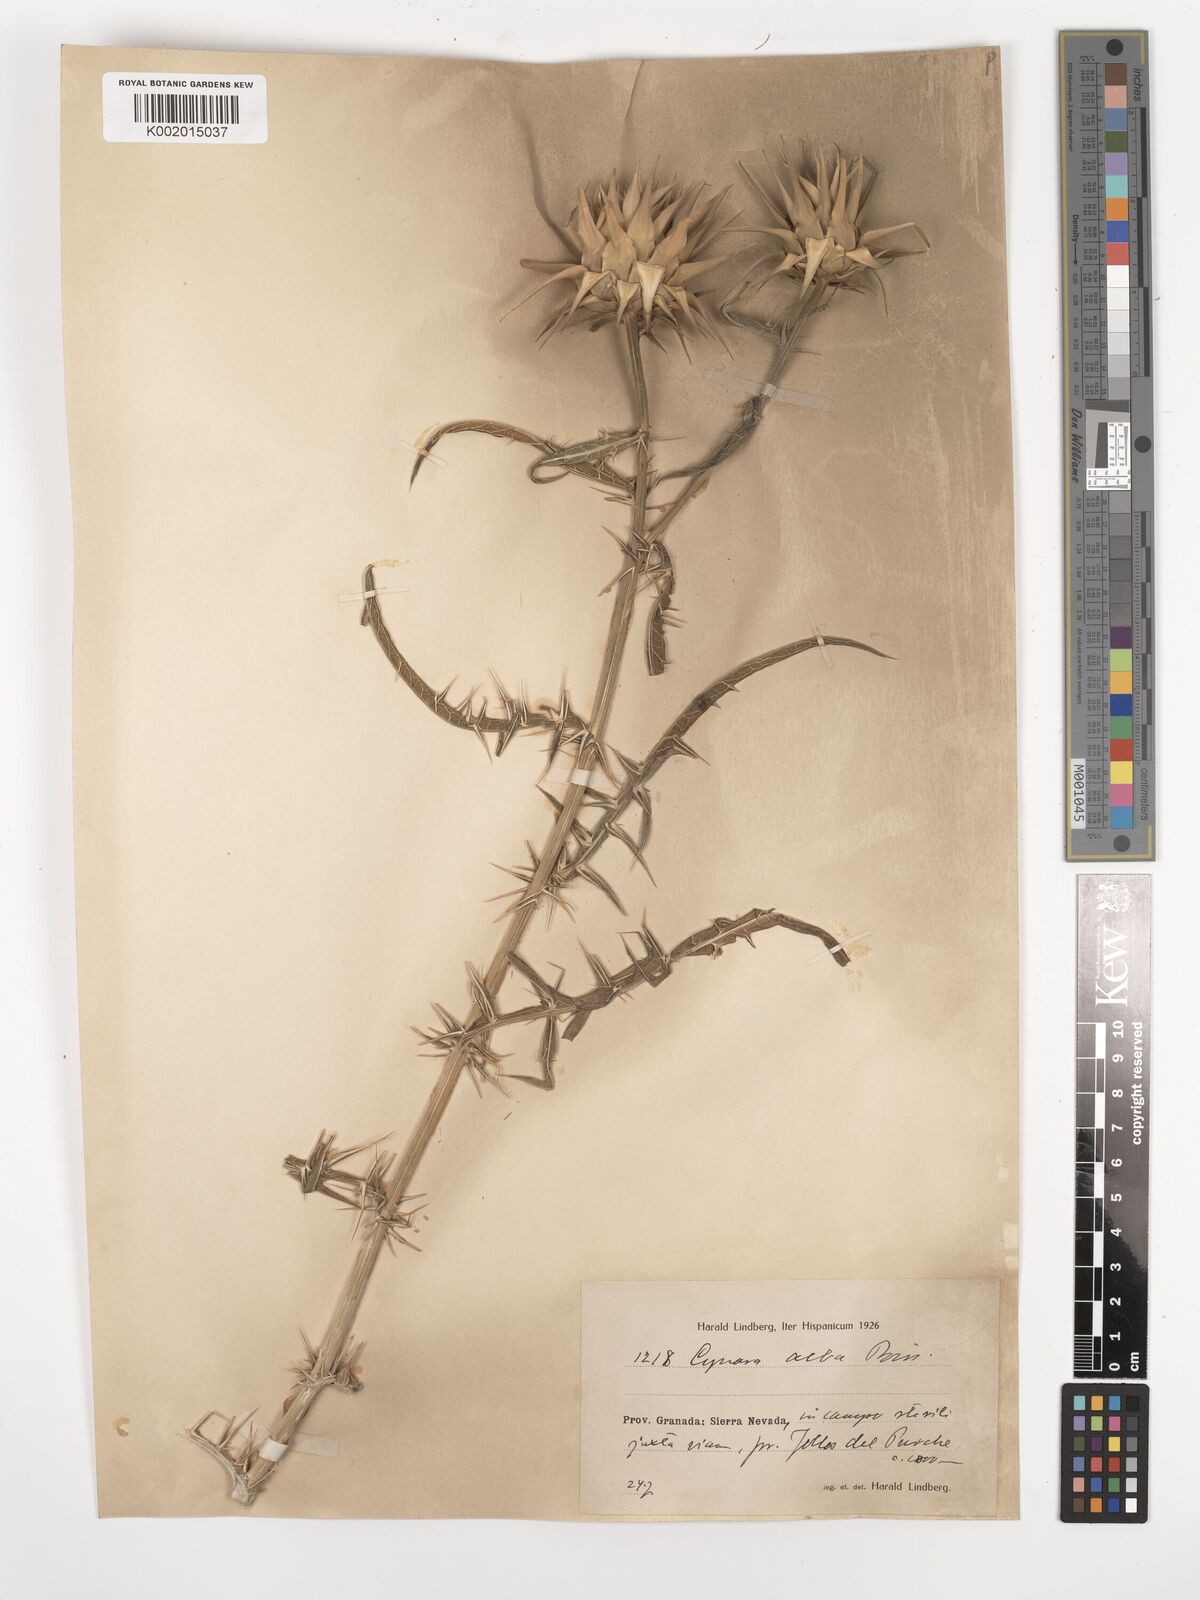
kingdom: Plantae
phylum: Tracheophyta
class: Magnoliopsida
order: Asterales
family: Asteraceae
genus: Cynara
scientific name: Cynara baetica
